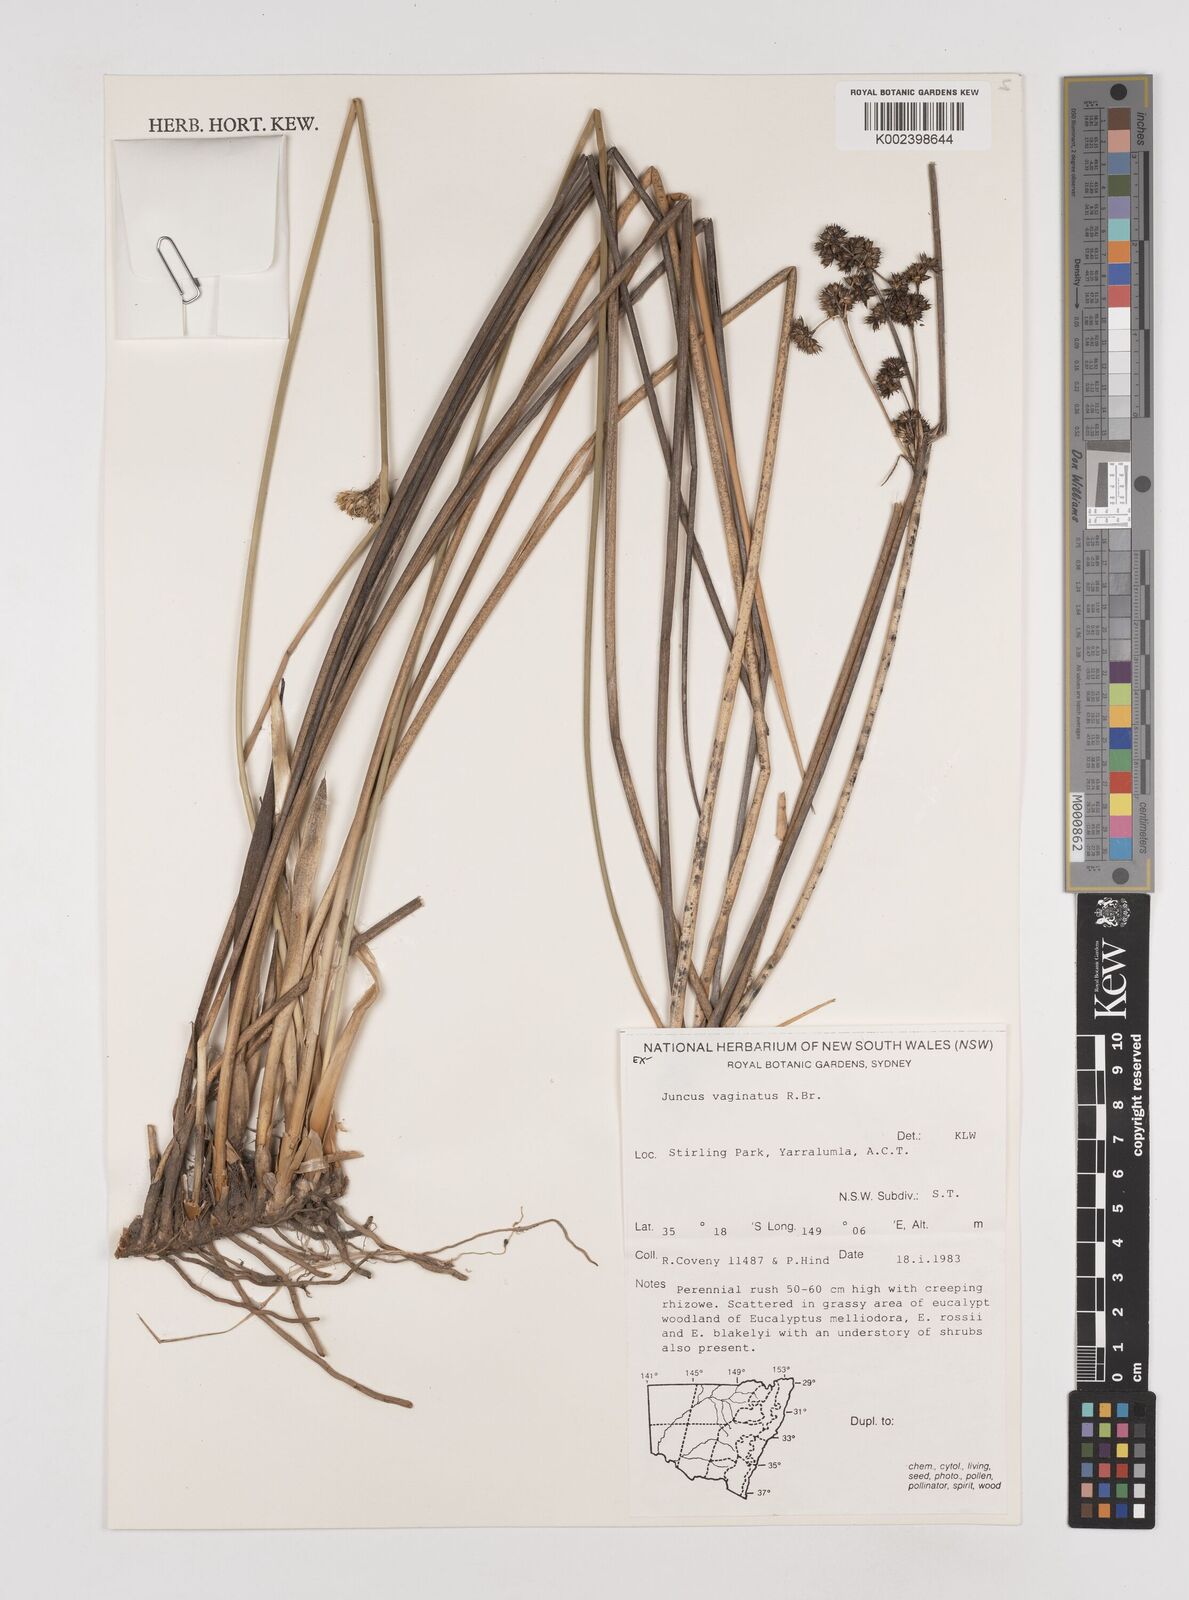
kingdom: Plantae
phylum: Tracheophyta
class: Liliopsida
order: Poales
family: Juncaceae
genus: Juncus
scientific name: Juncus vaginatus
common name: Clustered rush
